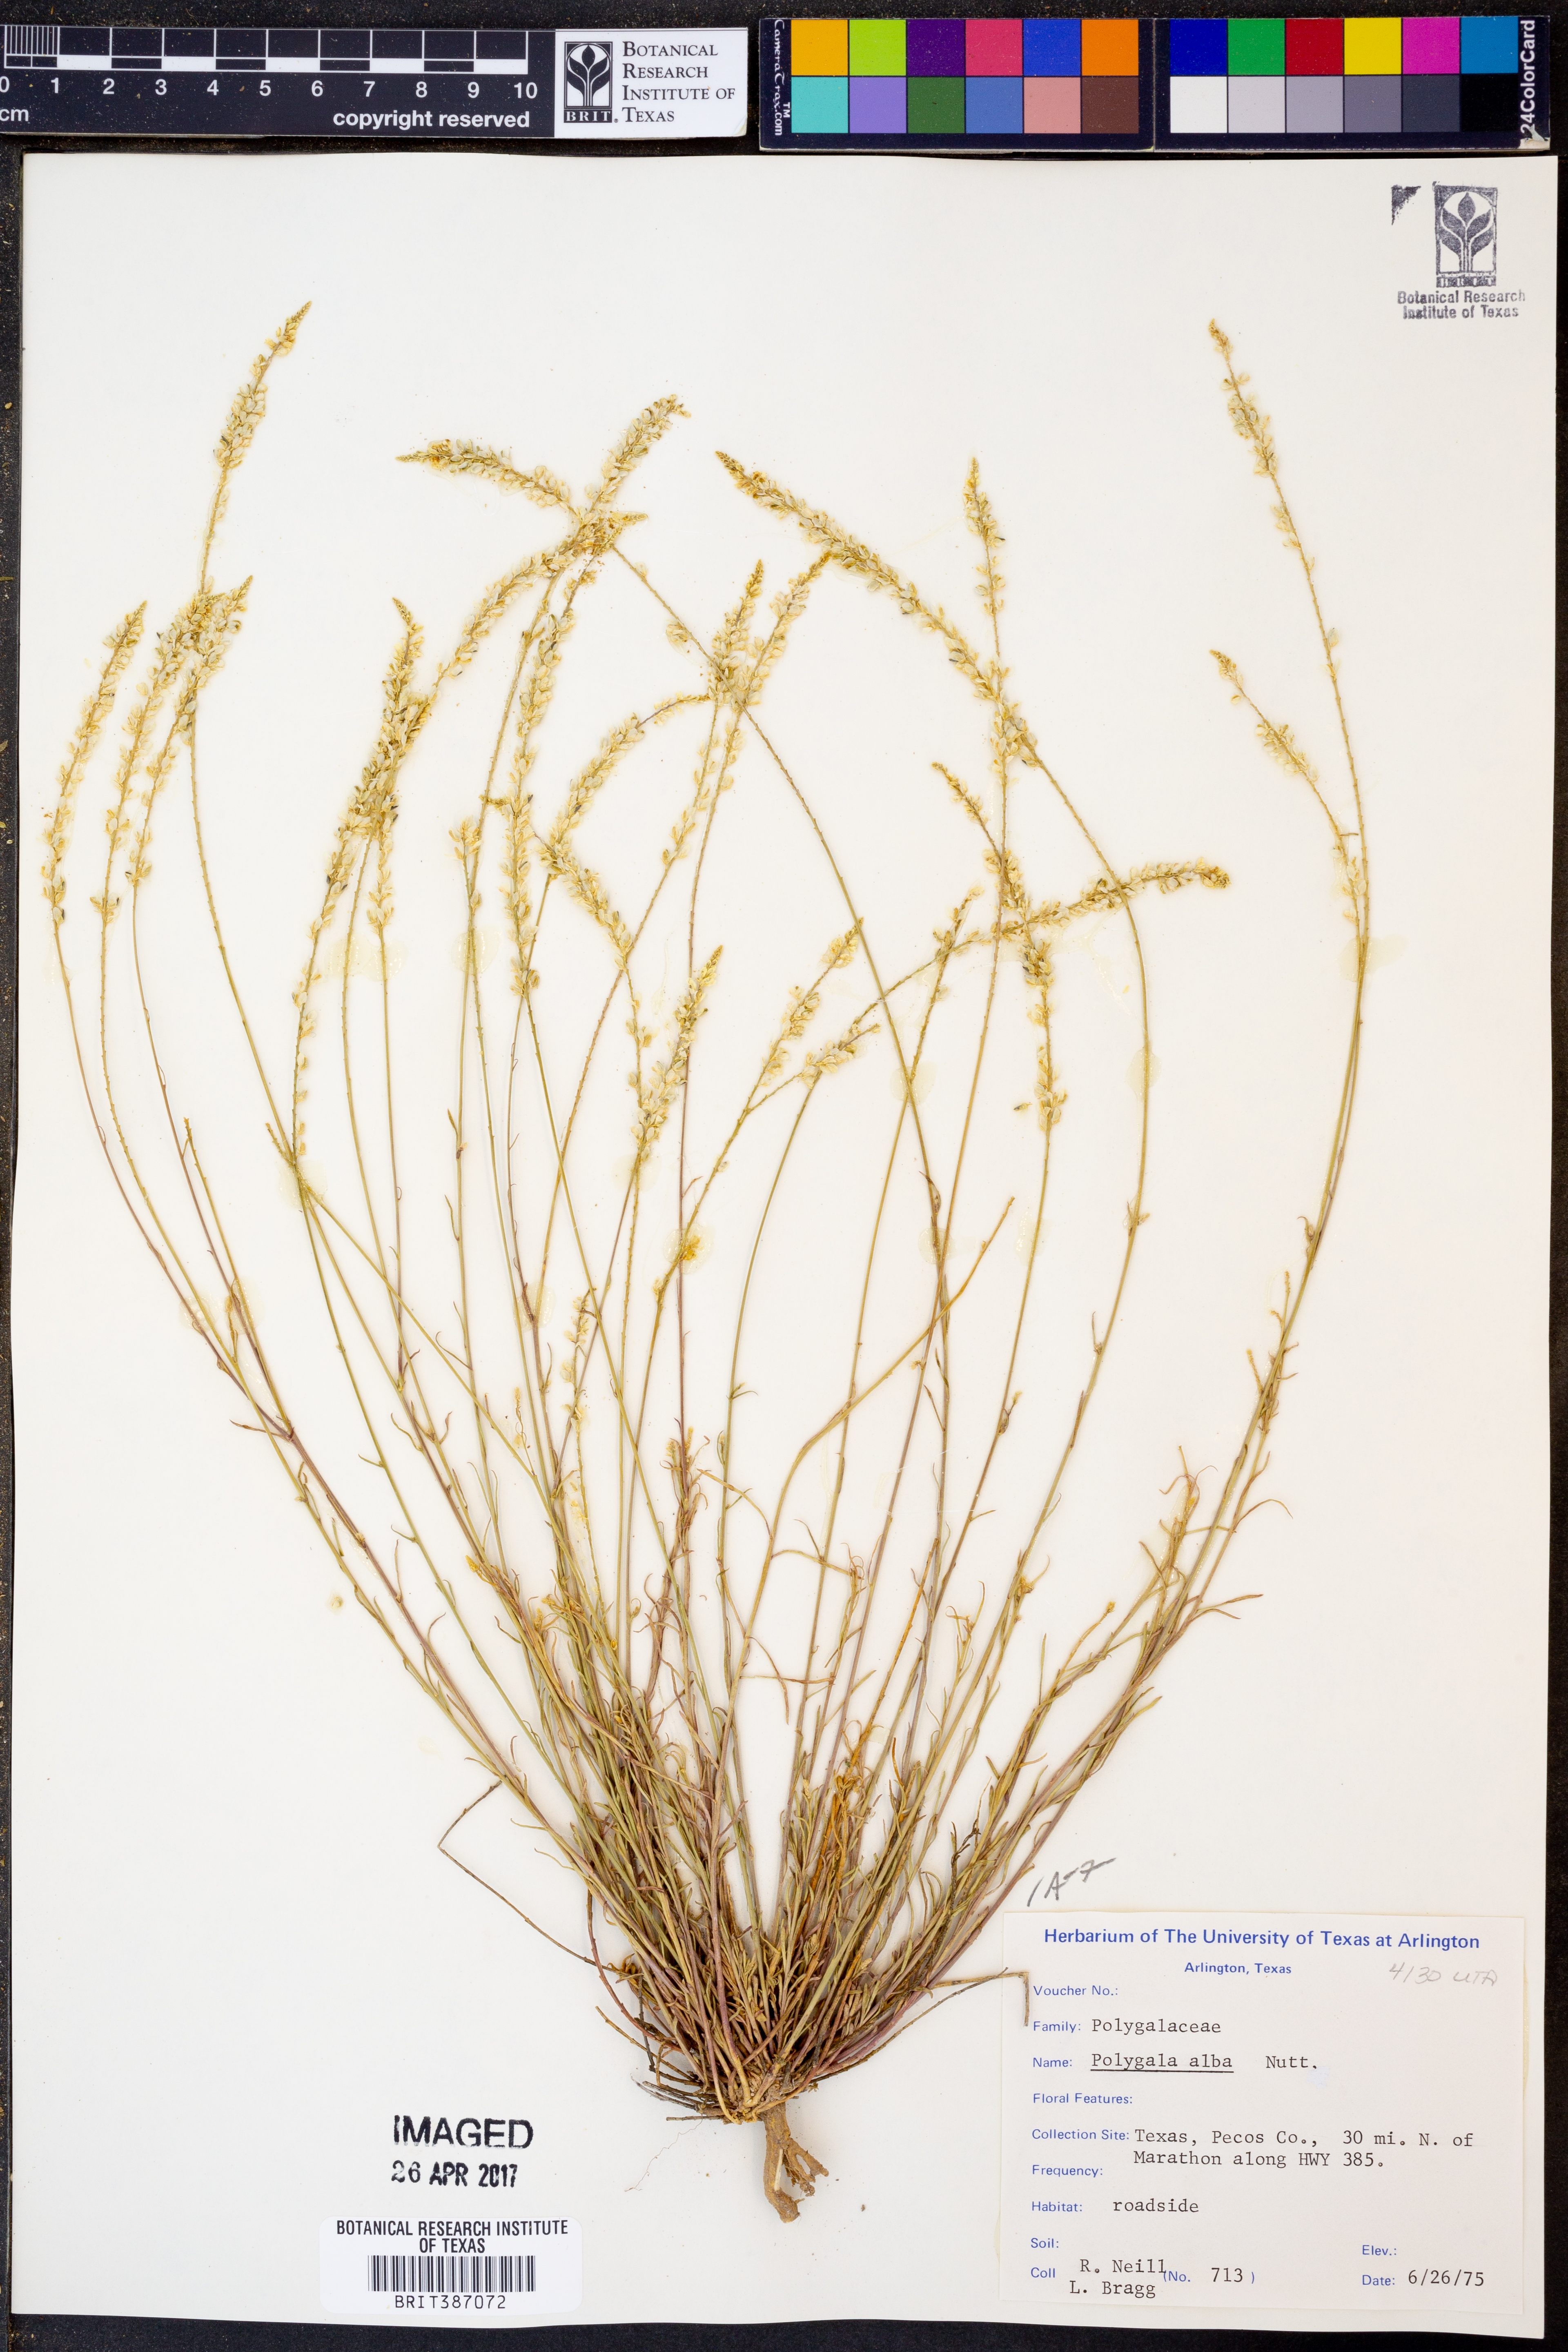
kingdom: Plantae
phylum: Tracheophyta
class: Magnoliopsida
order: Fabales
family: Polygalaceae
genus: Polygala
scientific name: Polygala alba
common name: White milkwort
